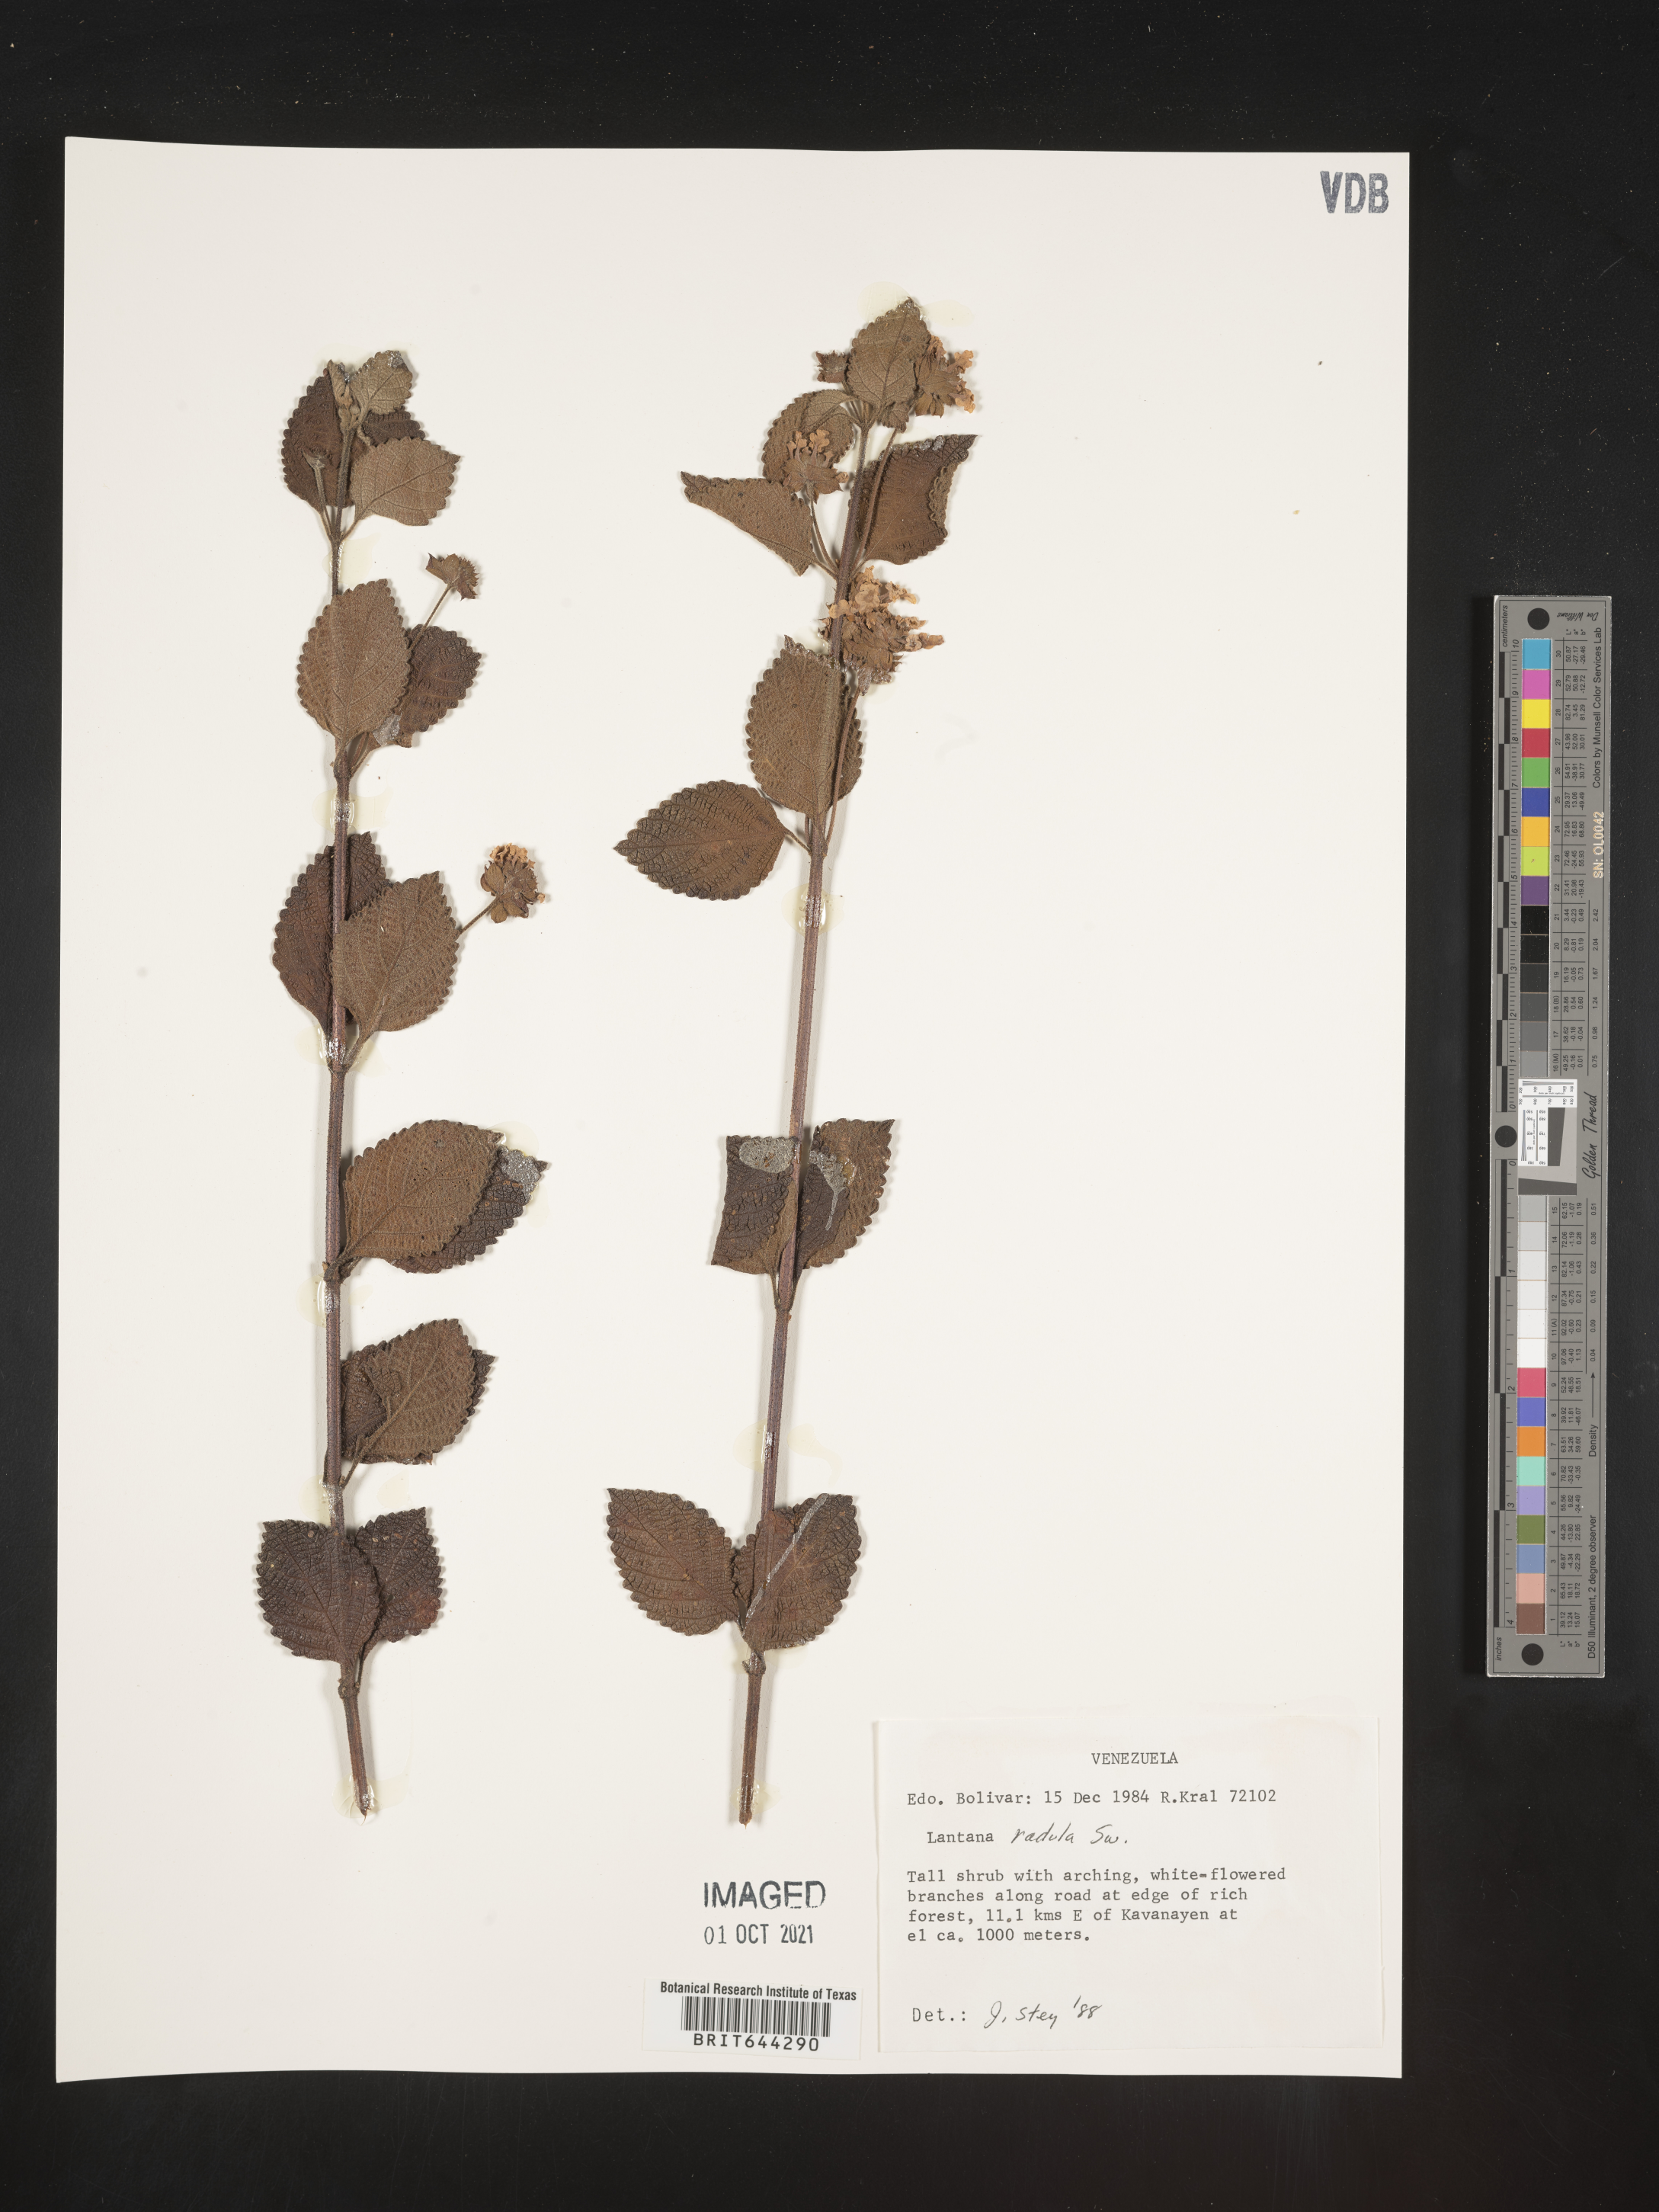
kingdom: Plantae
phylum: Tracheophyta
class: Magnoliopsida
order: Lamiales
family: Verbenaceae
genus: Lantana
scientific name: Lantana
